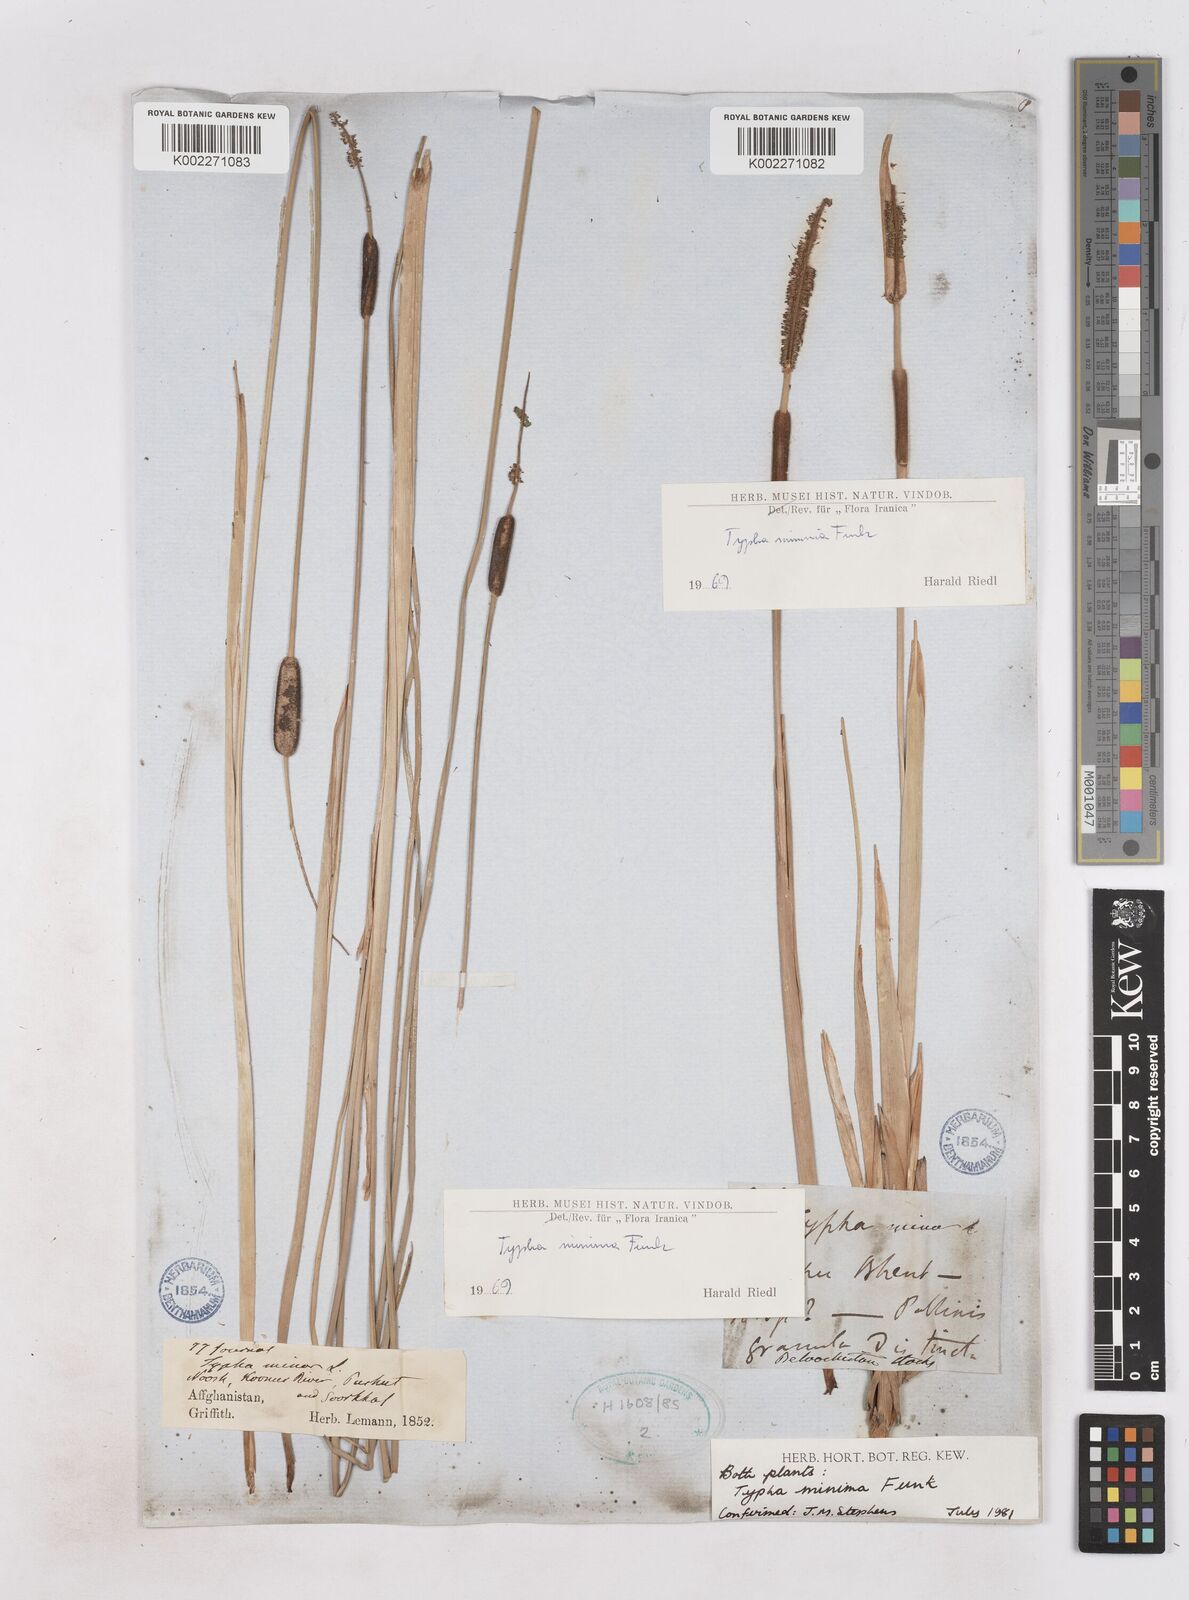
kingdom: Plantae
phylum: Tracheophyta
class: Liliopsida
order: Poales
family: Typhaceae
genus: Typha
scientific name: Typha minima
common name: Dwarf bulrush
